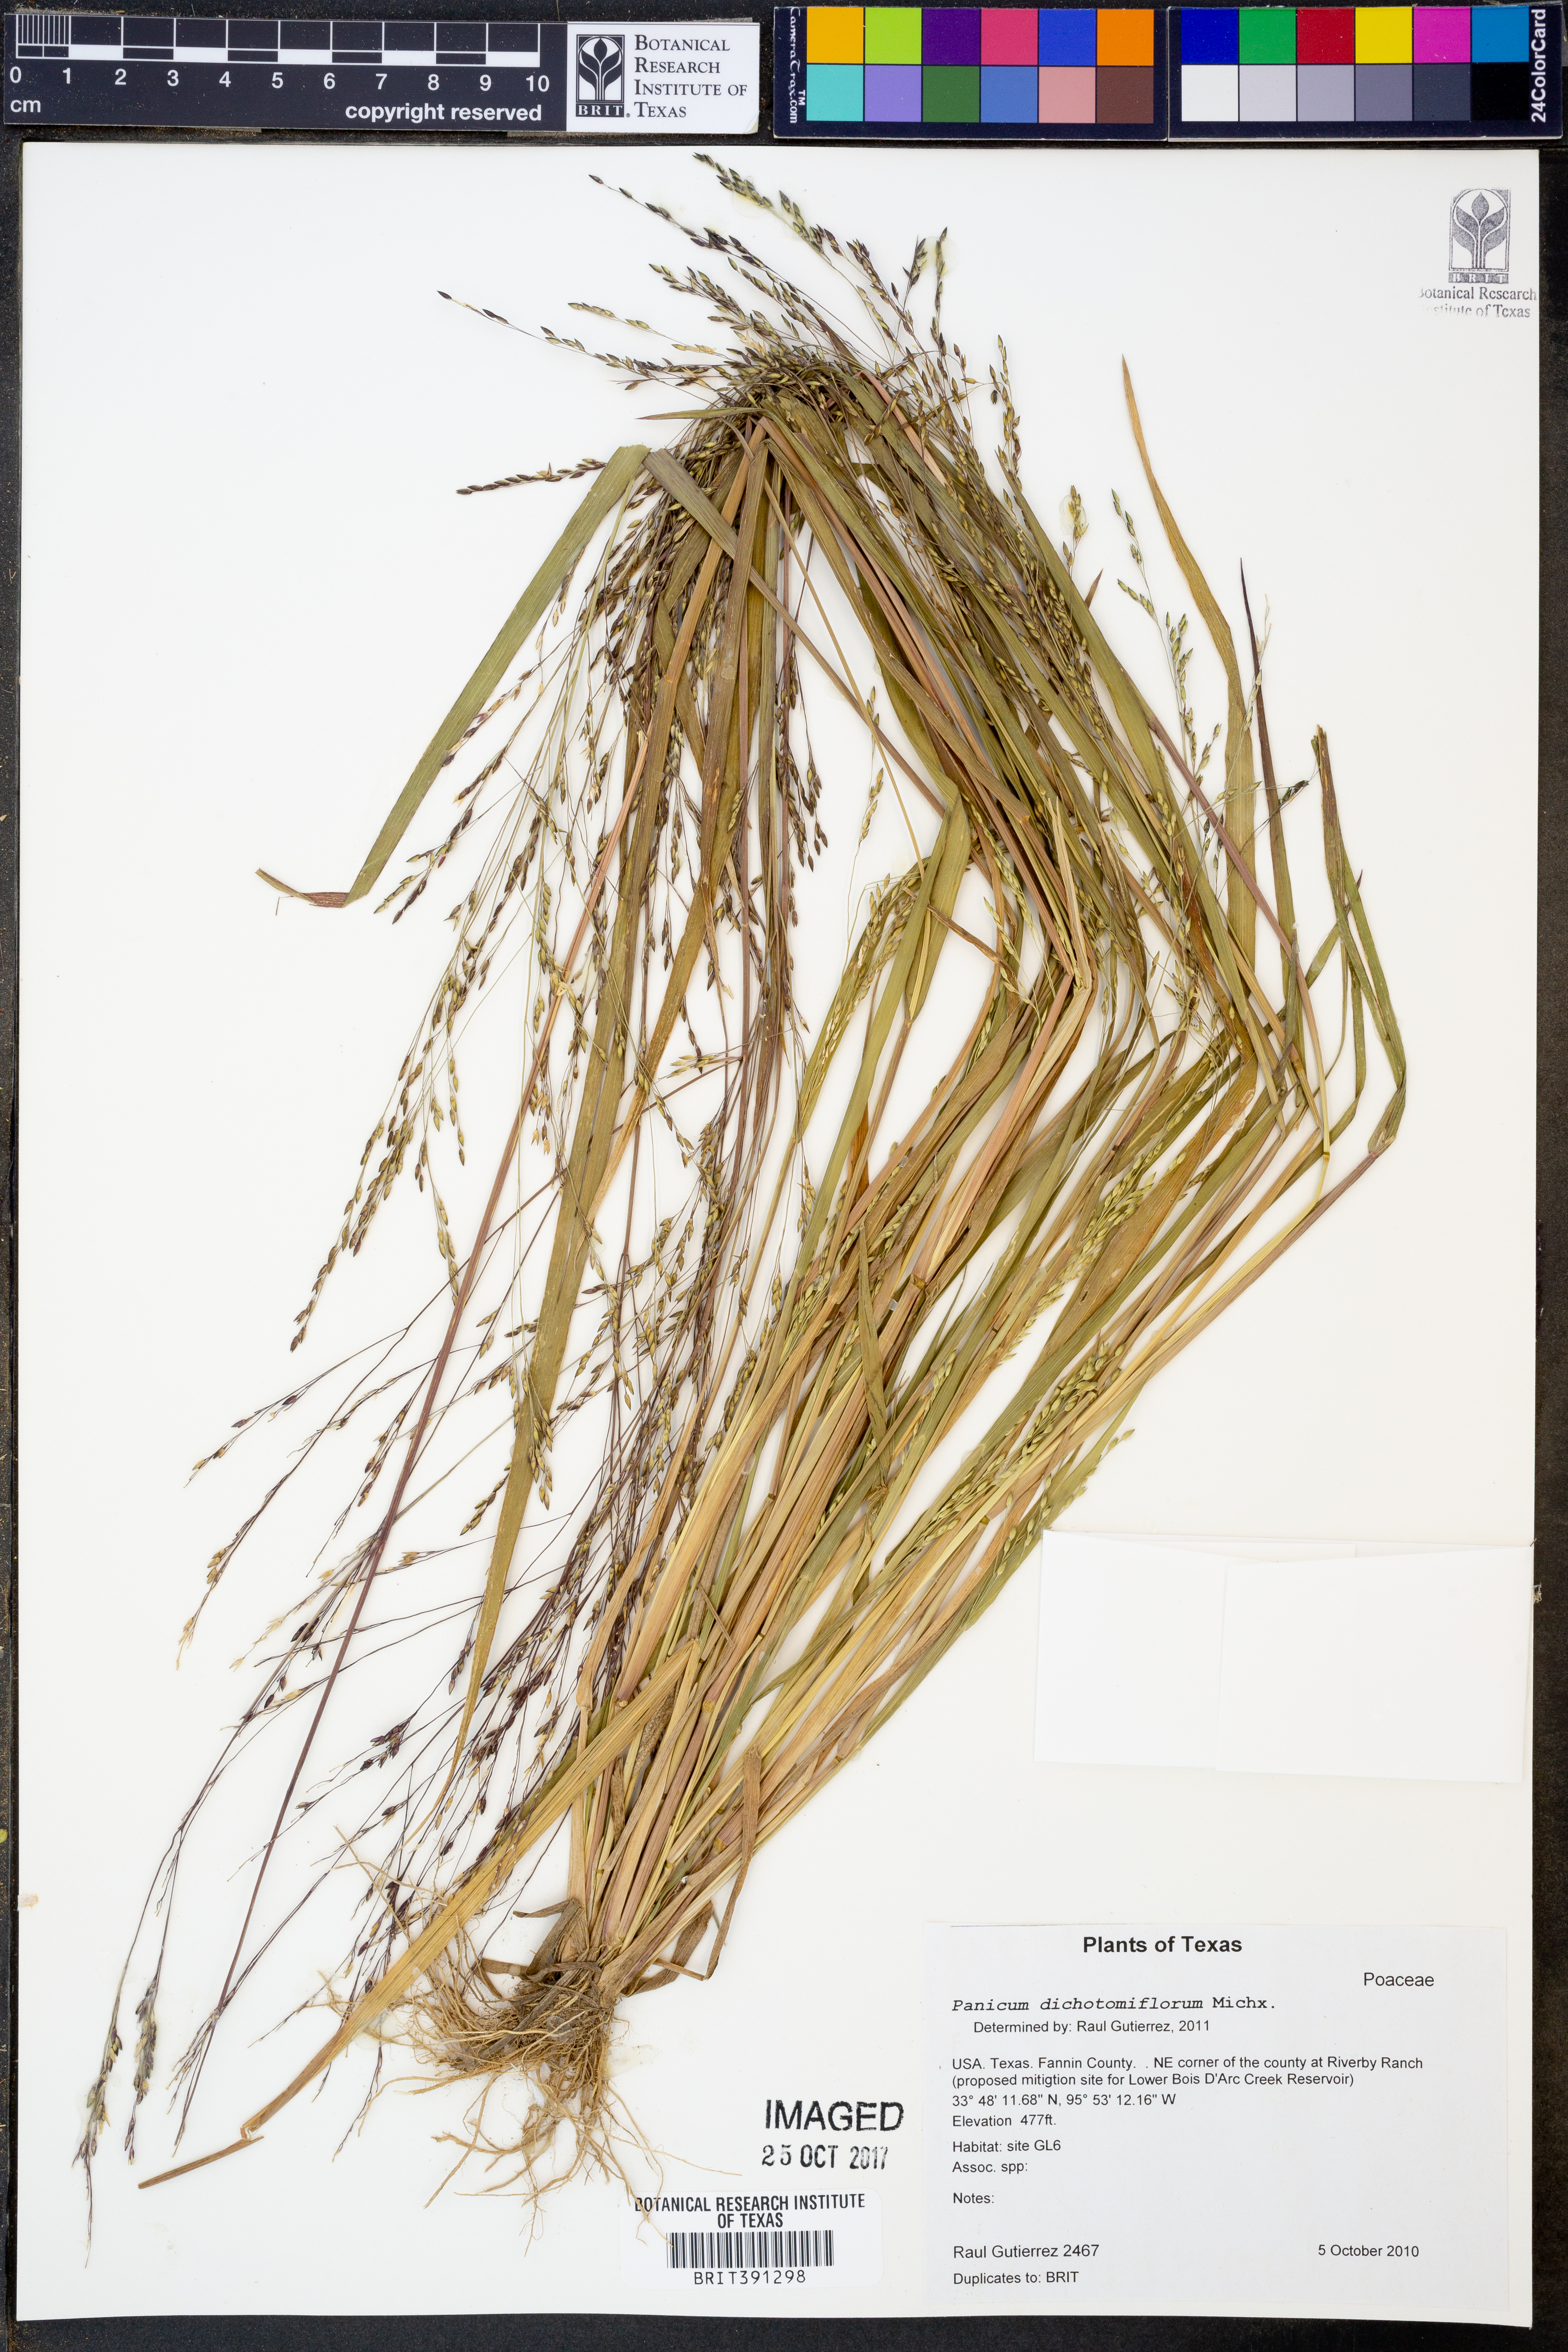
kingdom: Plantae
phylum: Tracheophyta
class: Liliopsida
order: Poales
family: Poaceae
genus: Panicum
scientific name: Panicum dichotomiflorum
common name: Autumn millet
